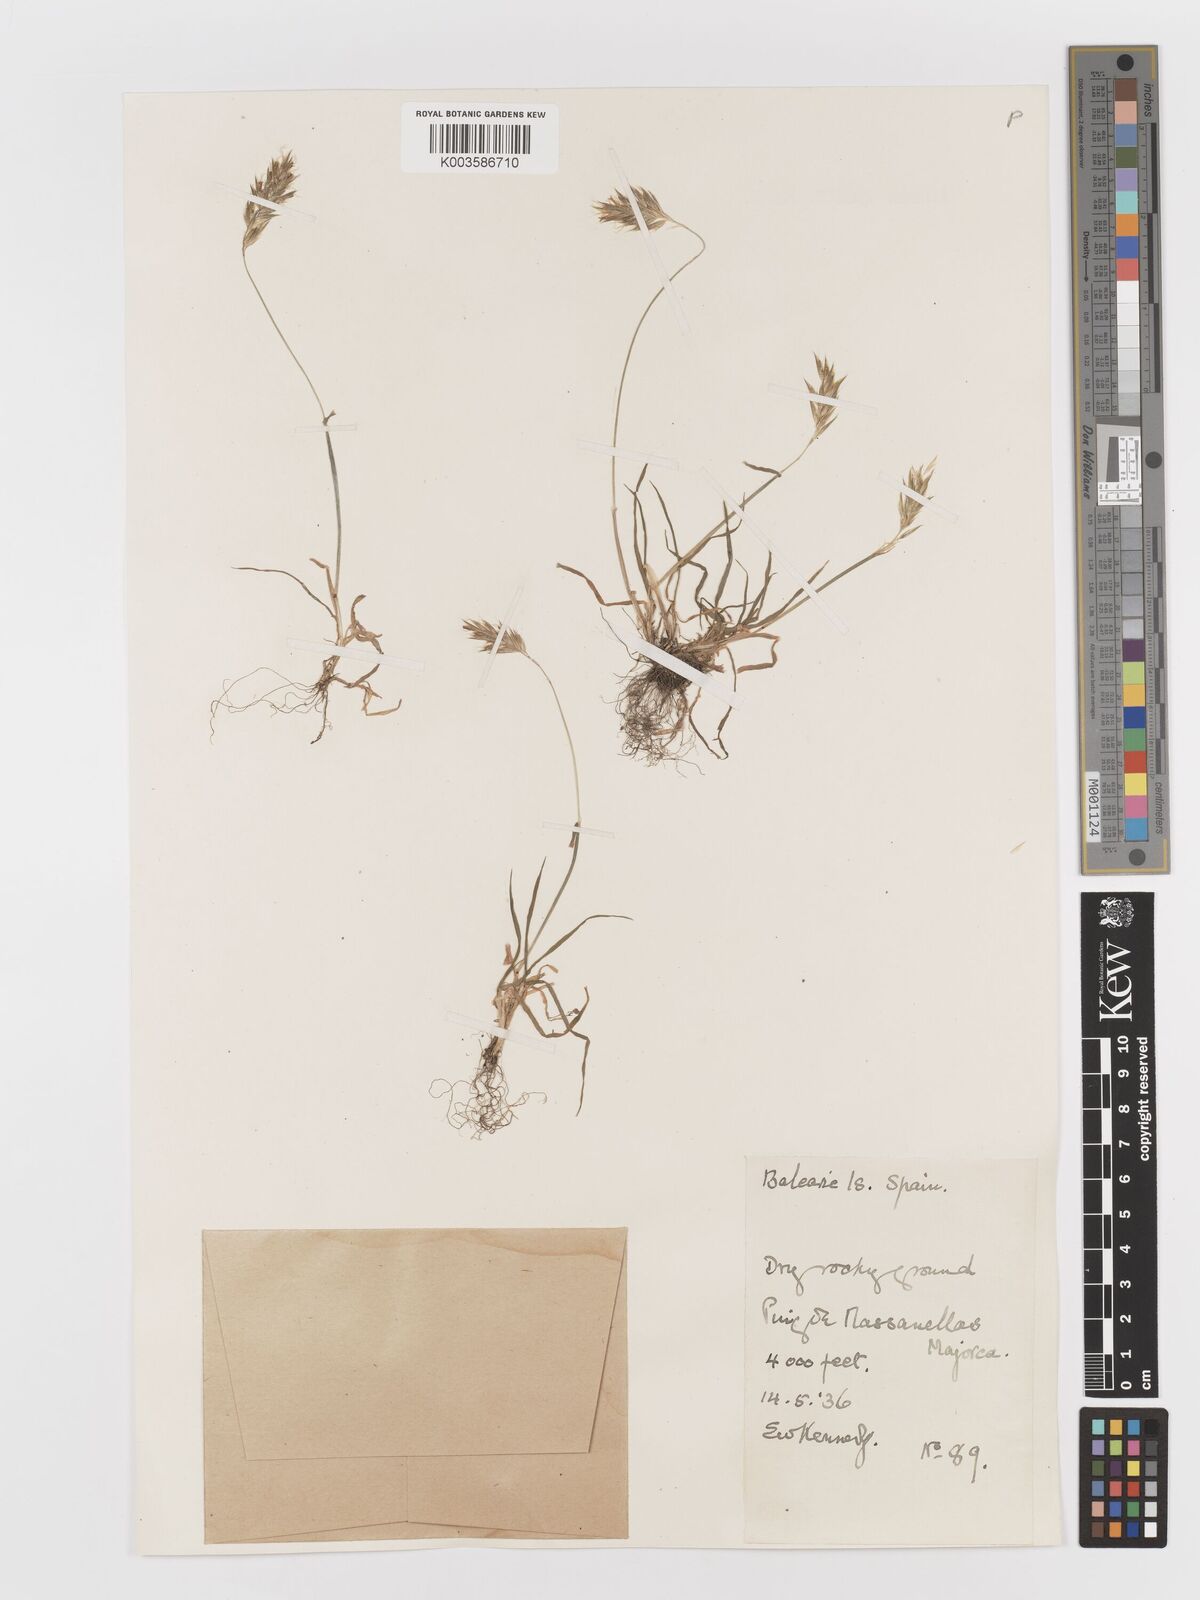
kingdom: Plantae
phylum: Tracheophyta
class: Liliopsida
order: Poales
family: Poaceae
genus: Anthoxanthum
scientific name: Anthoxanthum odoratum
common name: Sweet vernalgrass
